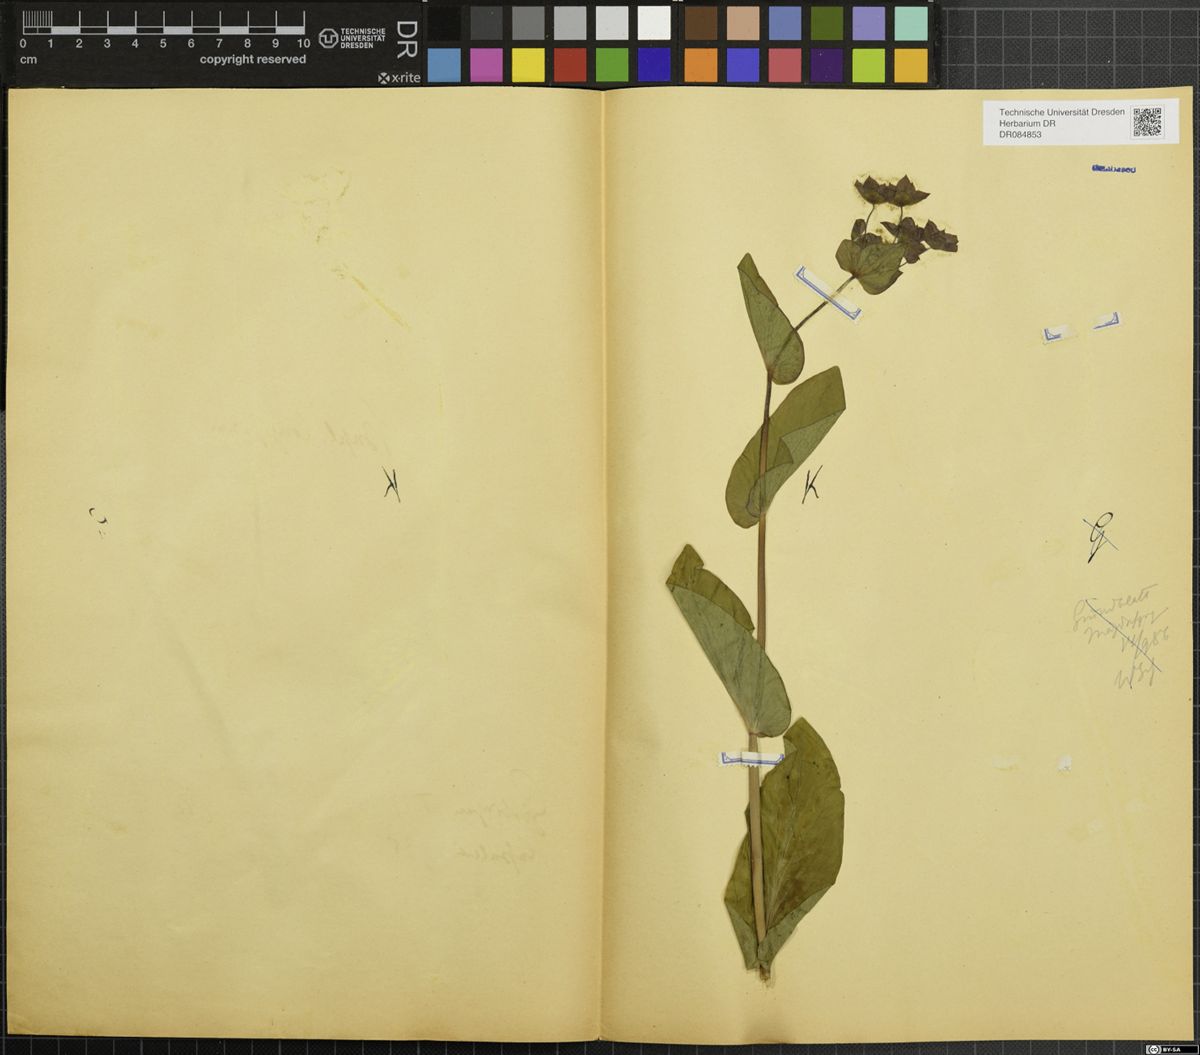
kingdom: Plantae
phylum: Tracheophyta
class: Magnoliopsida
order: Apiales
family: Apiaceae
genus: Bupleurum
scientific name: Bupleurum longifolium
